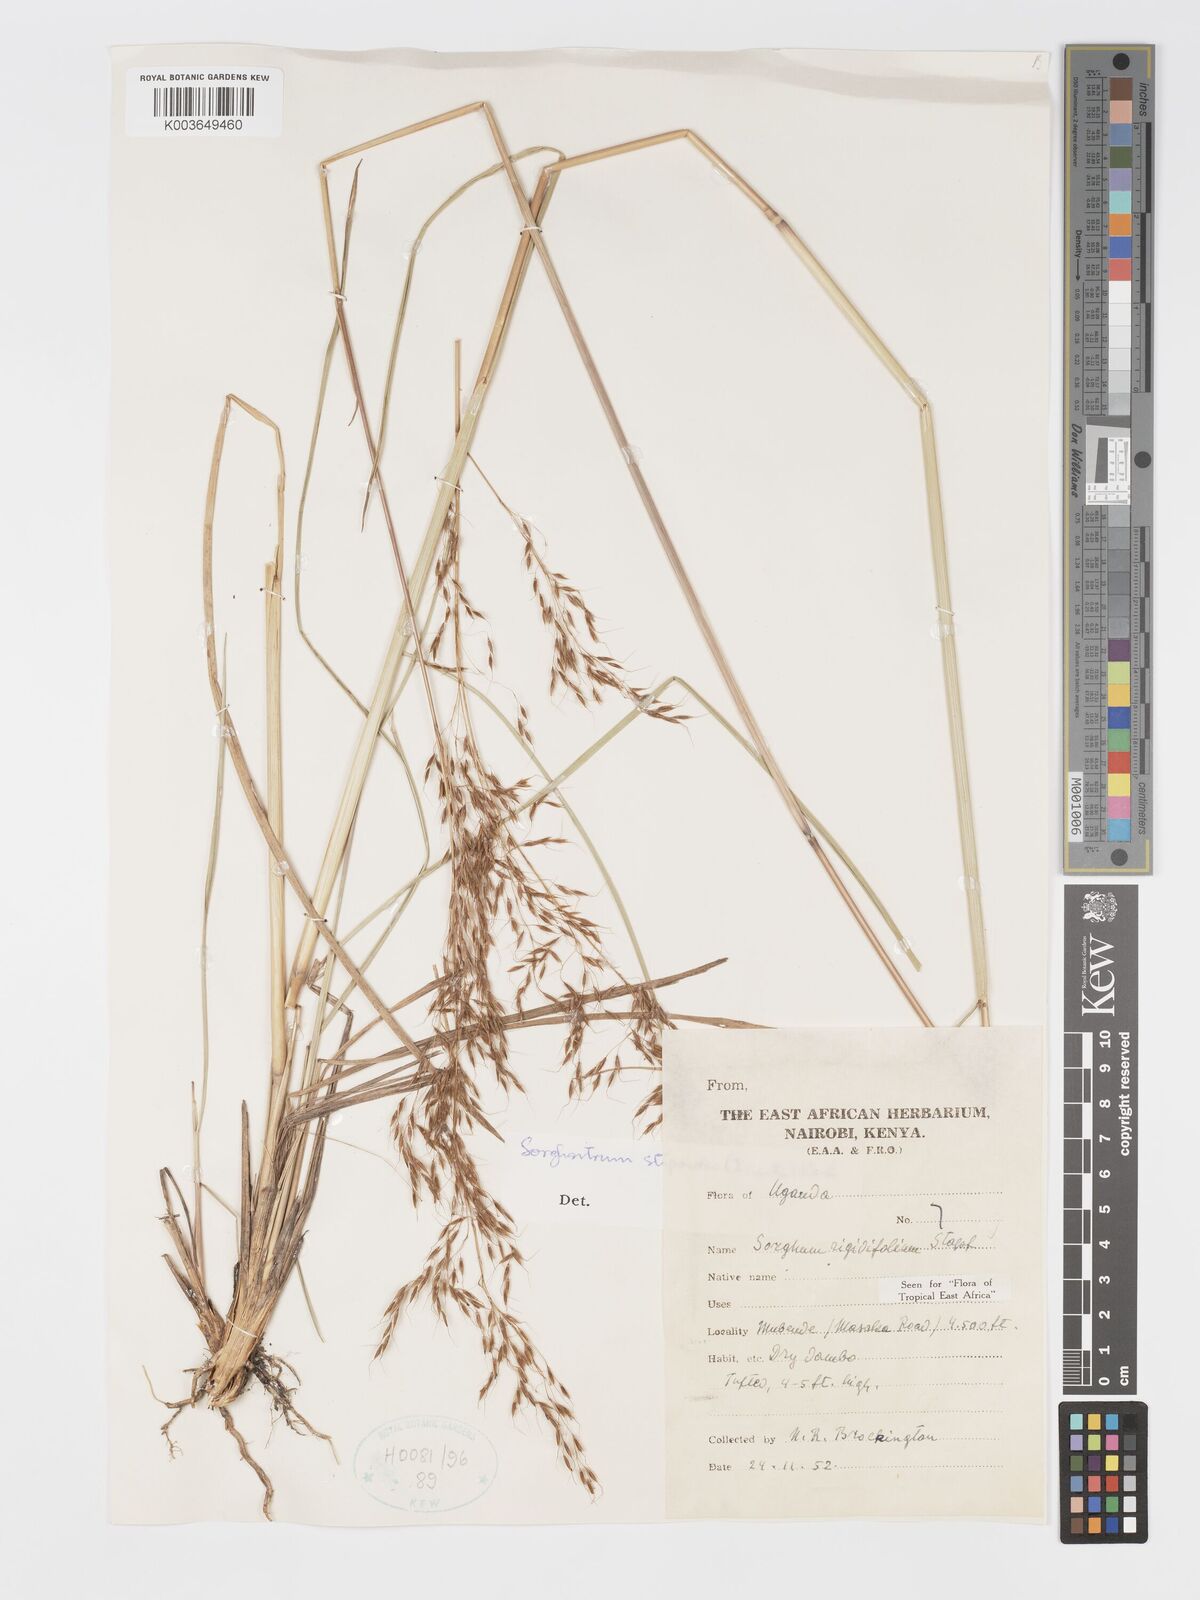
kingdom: Plantae
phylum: Tracheophyta
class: Liliopsida
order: Poales
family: Poaceae
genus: Sorghastrum
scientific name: Sorghastrum stipoides
